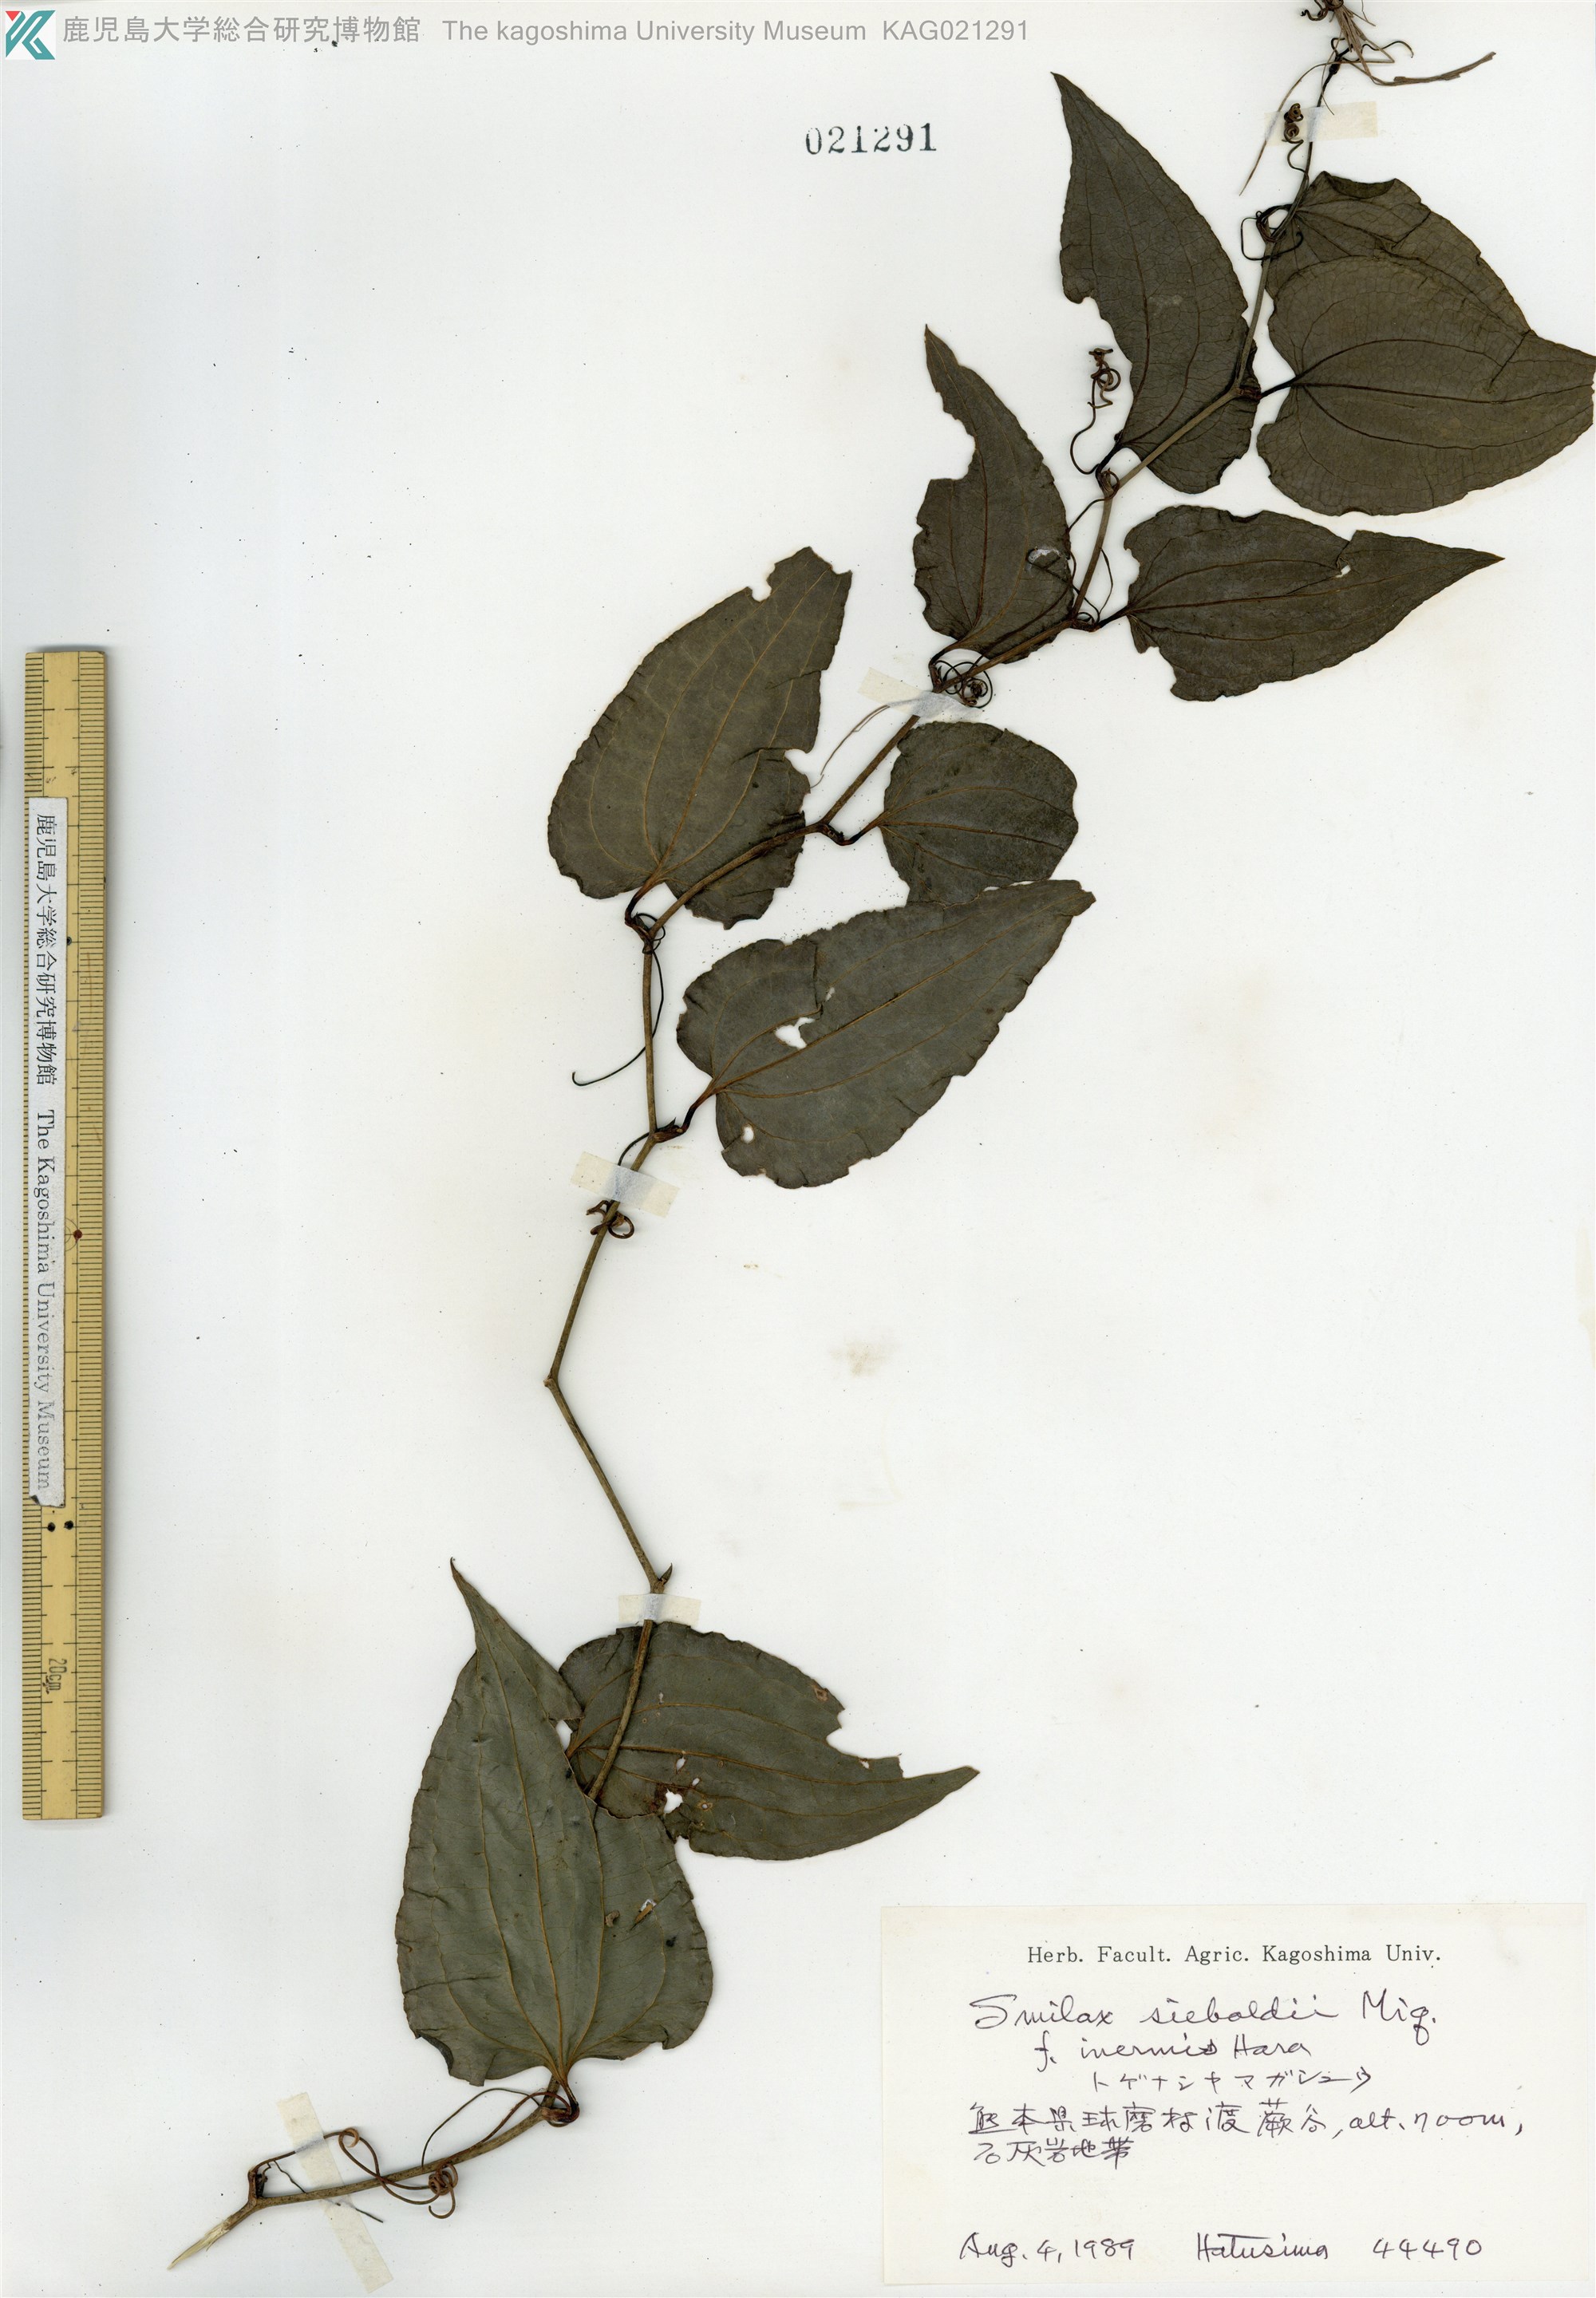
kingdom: Plantae
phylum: Tracheophyta
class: Liliopsida
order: Liliales
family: Smilacaceae
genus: Smilax
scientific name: Smilax sieboldii
